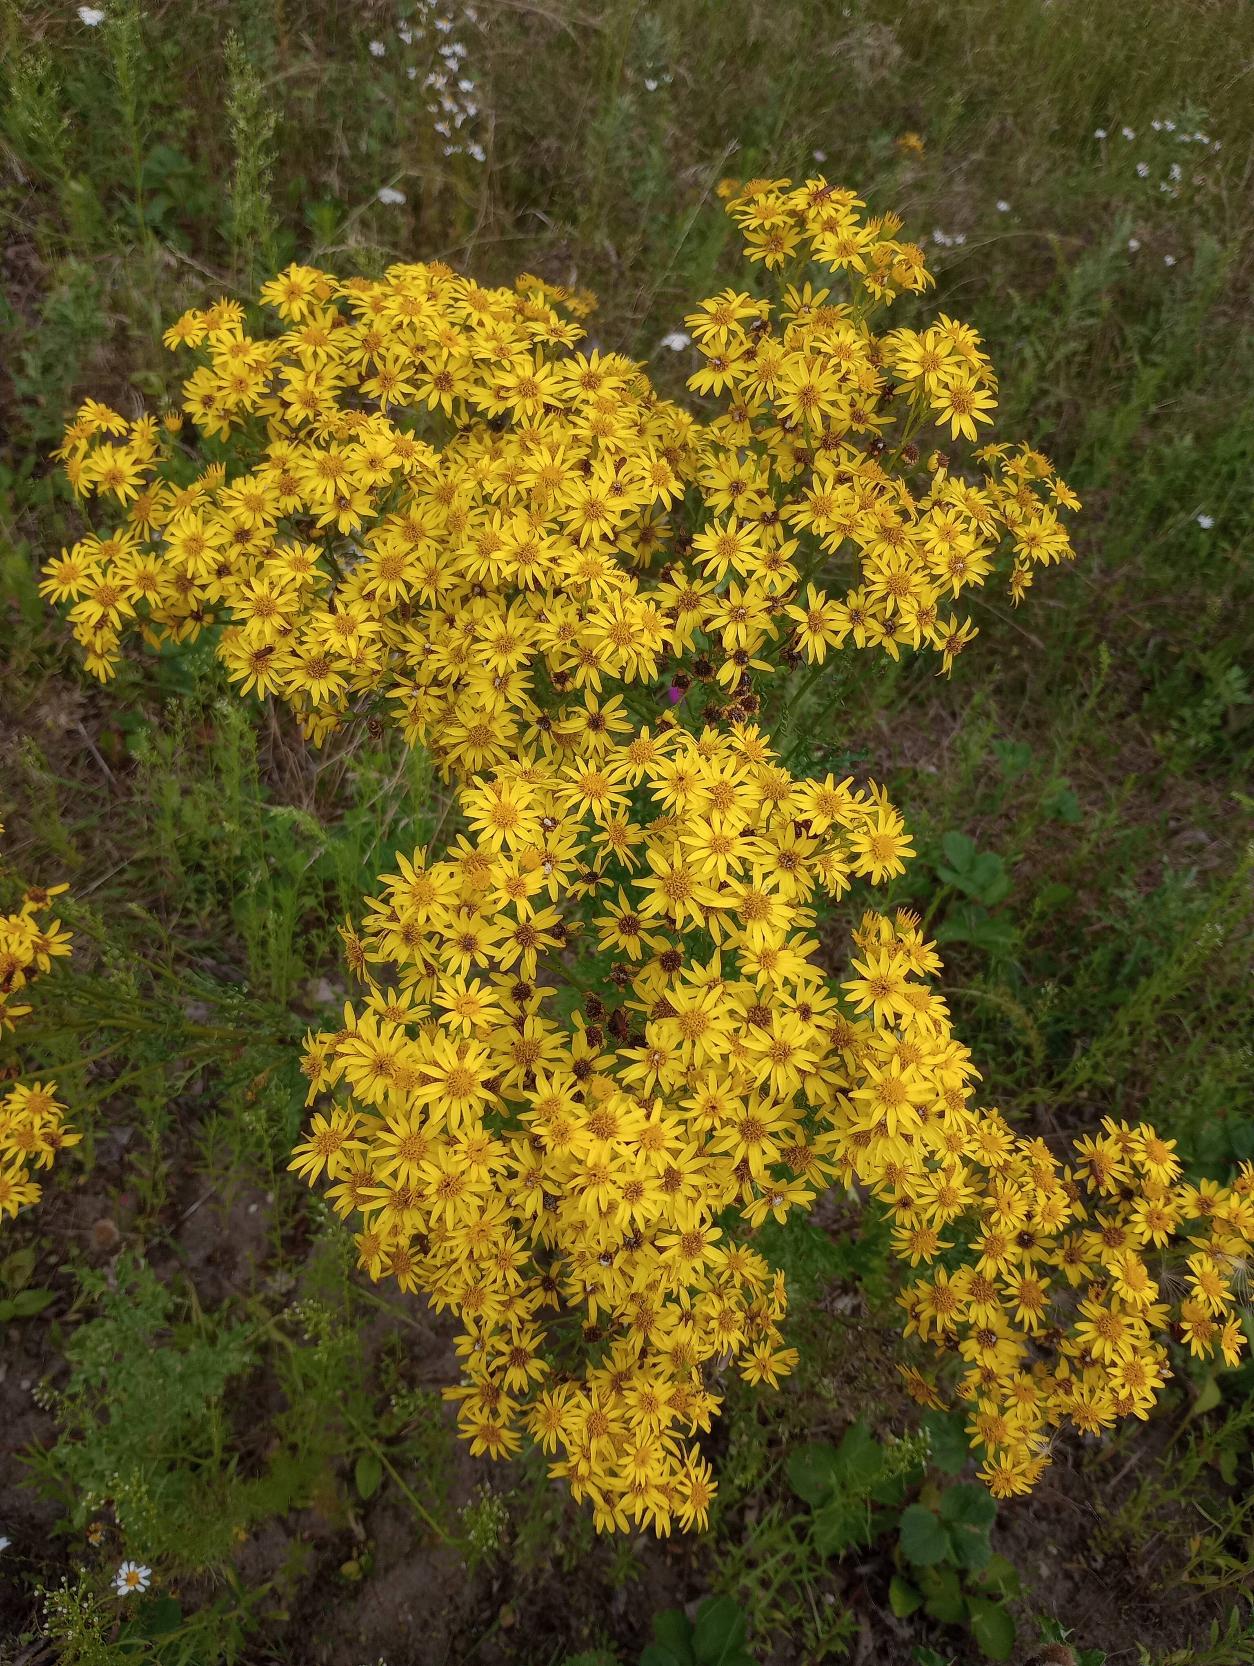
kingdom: Plantae
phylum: Tracheophyta
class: Magnoliopsida
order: Asterales
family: Asteraceae
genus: Jacobaea
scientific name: Jacobaea vulgaris
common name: Eng-brandbæger
